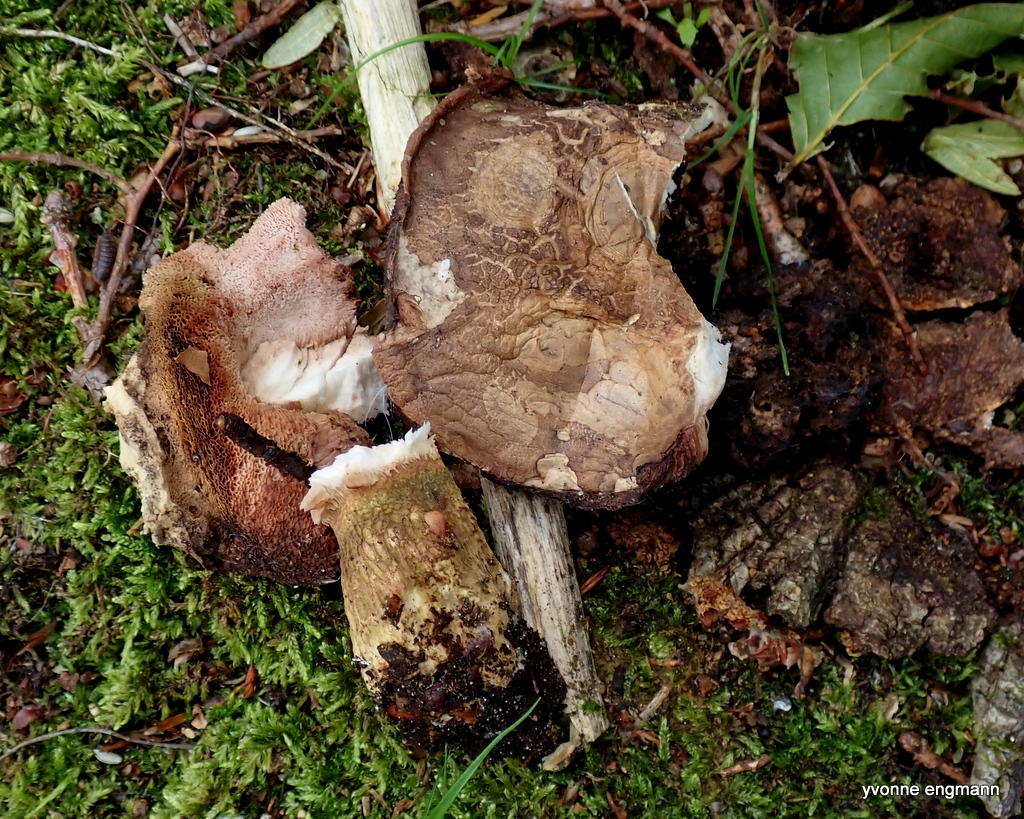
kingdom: Fungi
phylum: Basidiomycota
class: Agaricomycetes
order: Boletales
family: Boletaceae
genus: Tylopilus
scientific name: Tylopilus felleus
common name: galderørhat
